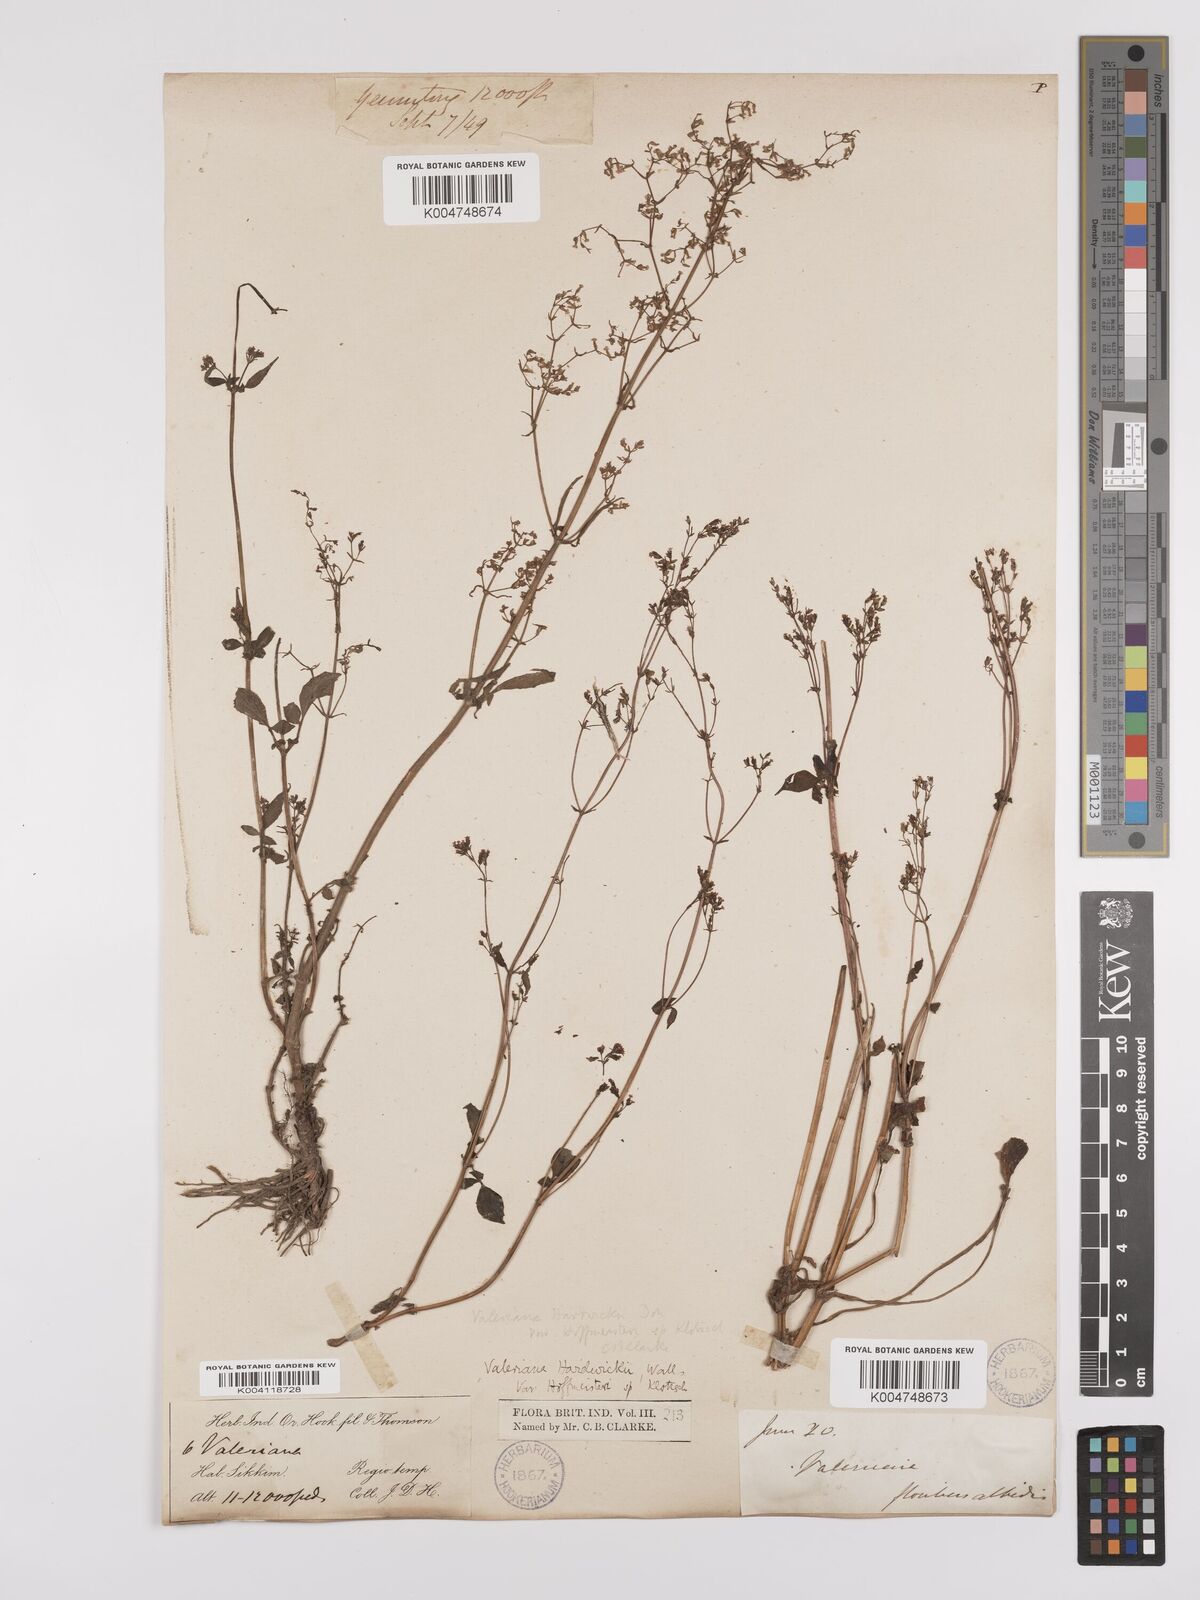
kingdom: Plantae
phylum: Tracheophyta
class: Magnoliopsida
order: Dipsacales
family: Caprifoliaceae
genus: Valeriana
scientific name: Valeriana hardwickei
